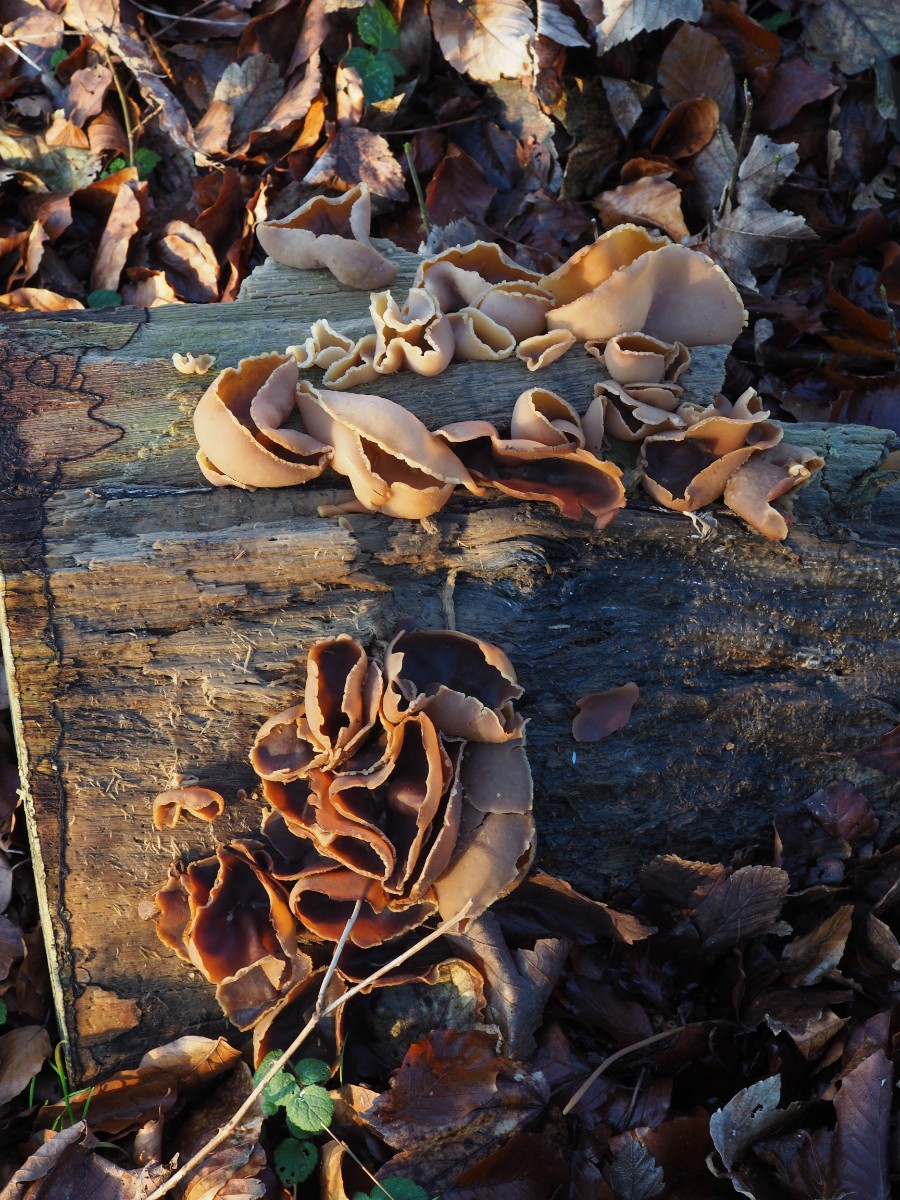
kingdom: Fungi
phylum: Ascomycota
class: Pezizomycetes
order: Pezizales
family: Pezizaceae
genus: Peziza
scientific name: Peziza varia
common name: Ved-bægersvamp
